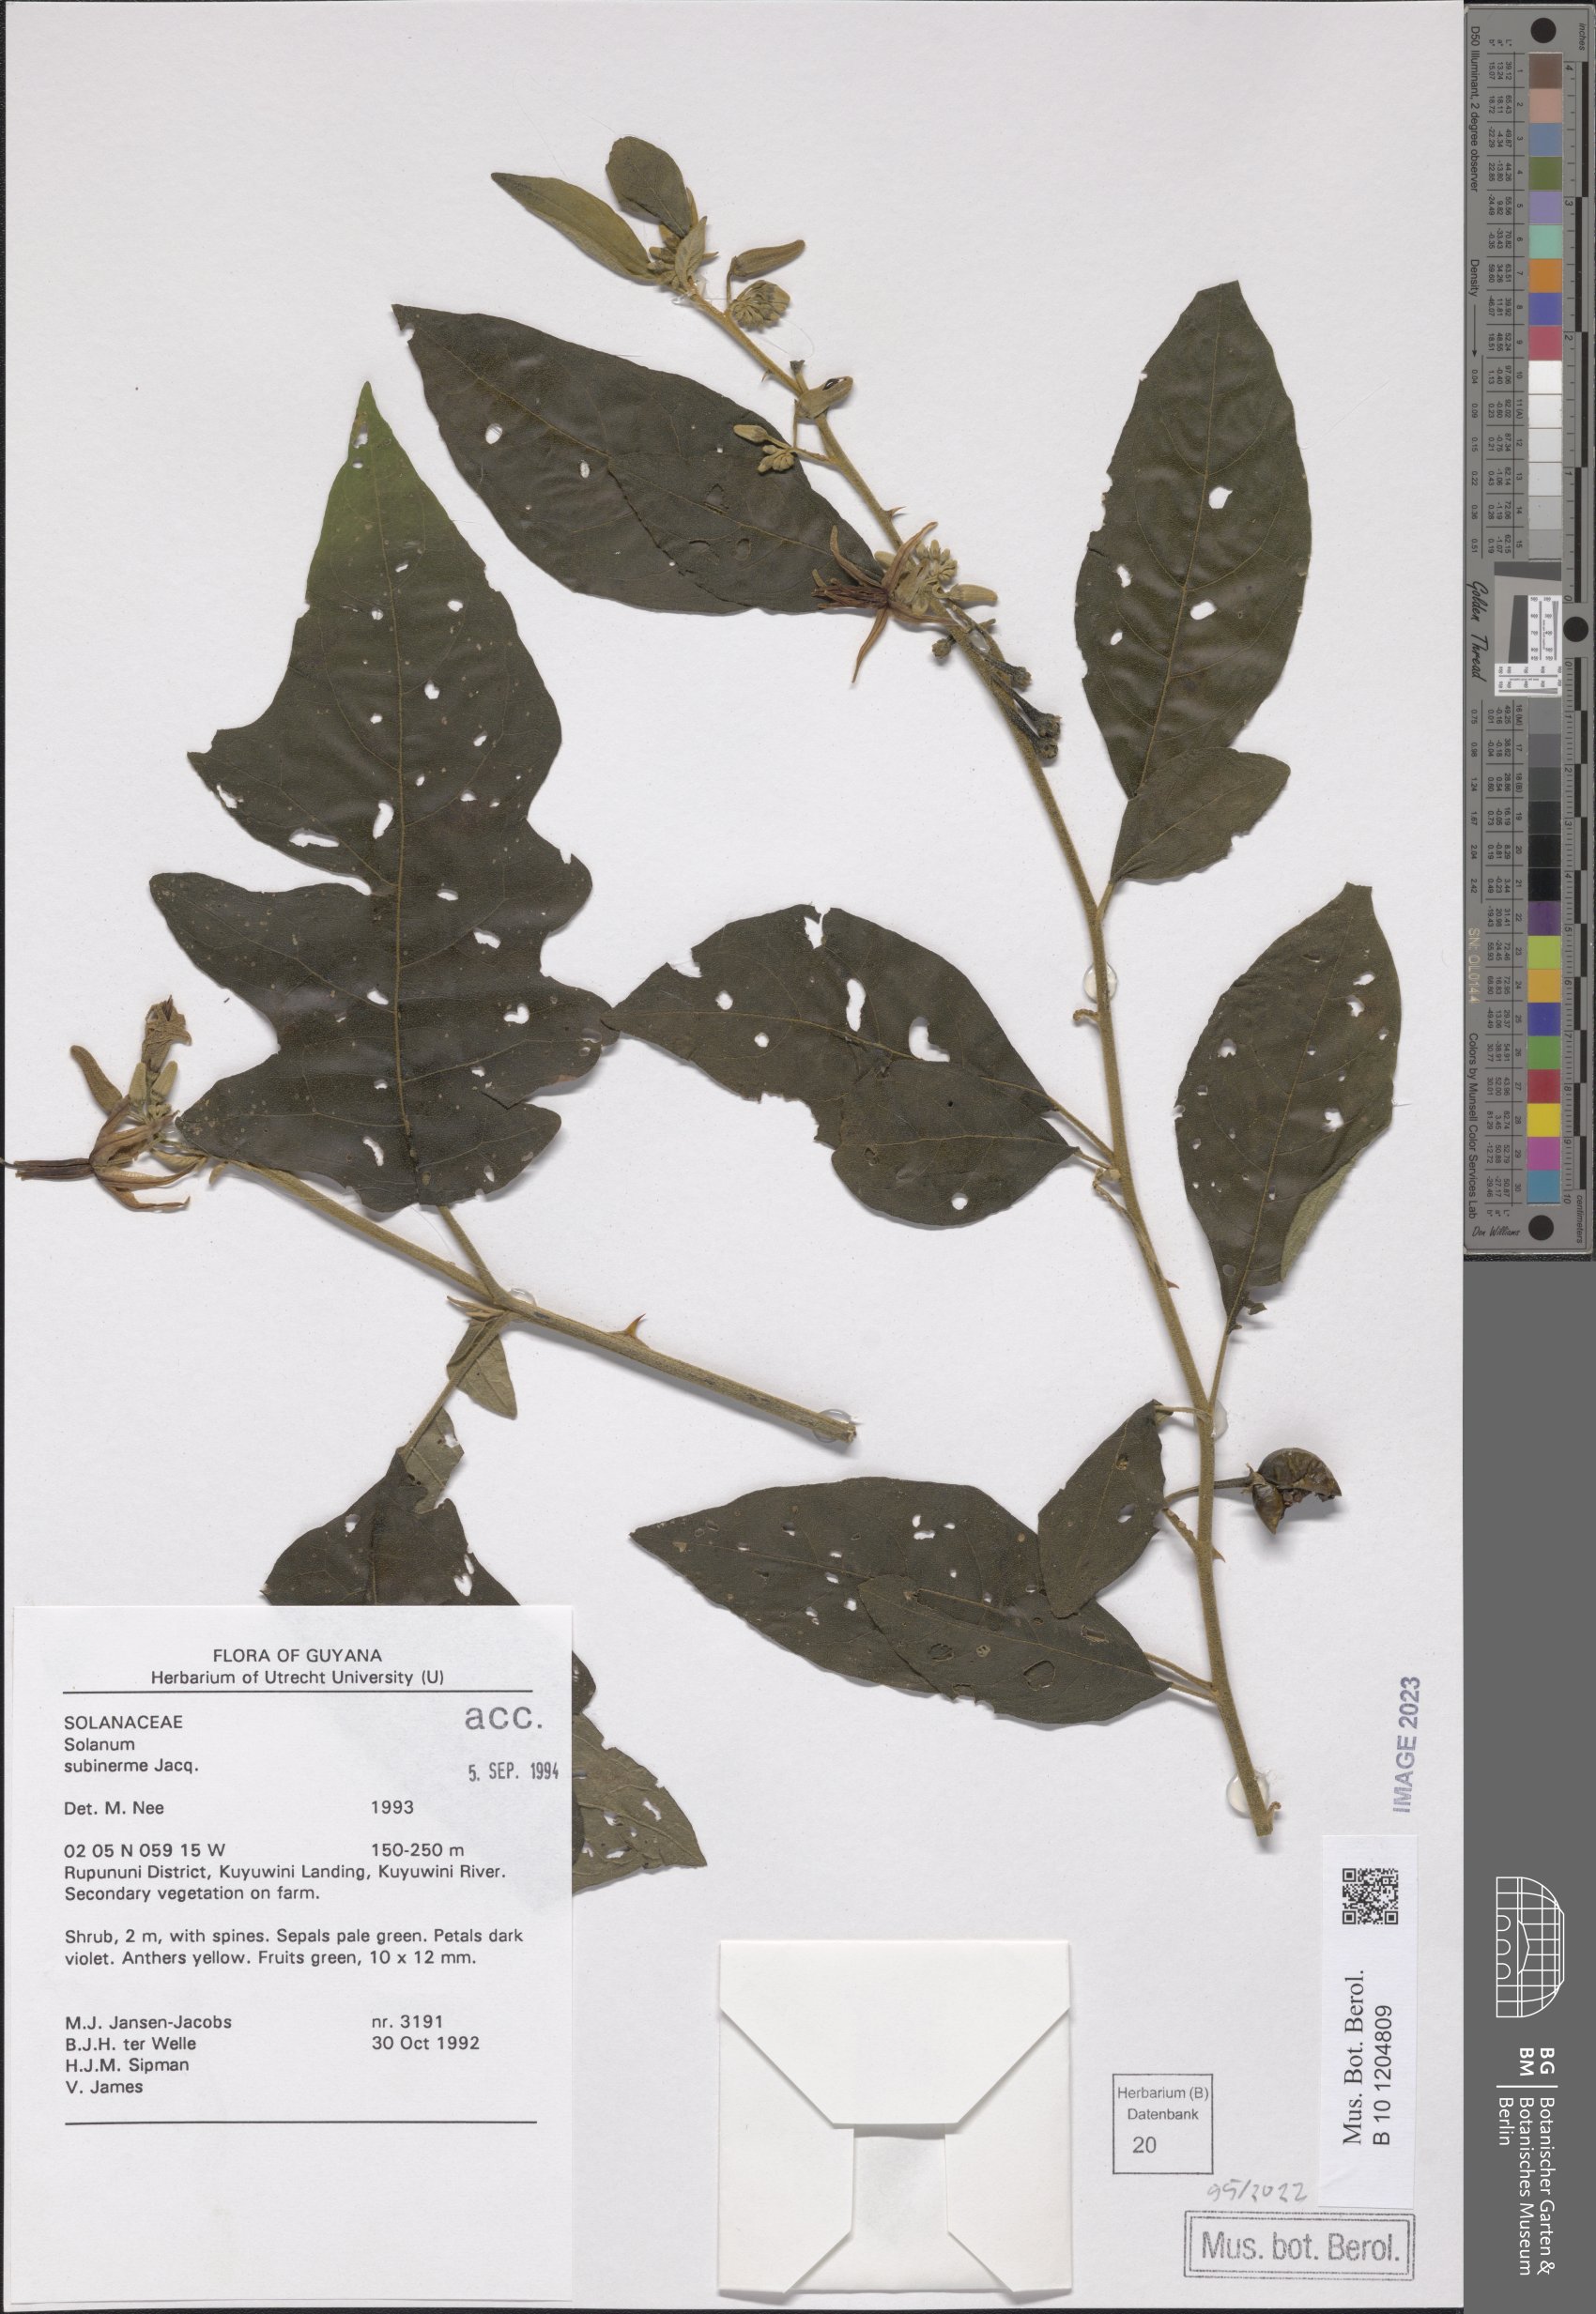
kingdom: Plantae
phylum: Tracheophyta
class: Magnoliopsida
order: Solanales
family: Solanaceae
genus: Solanum
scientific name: Solanum subinerme
